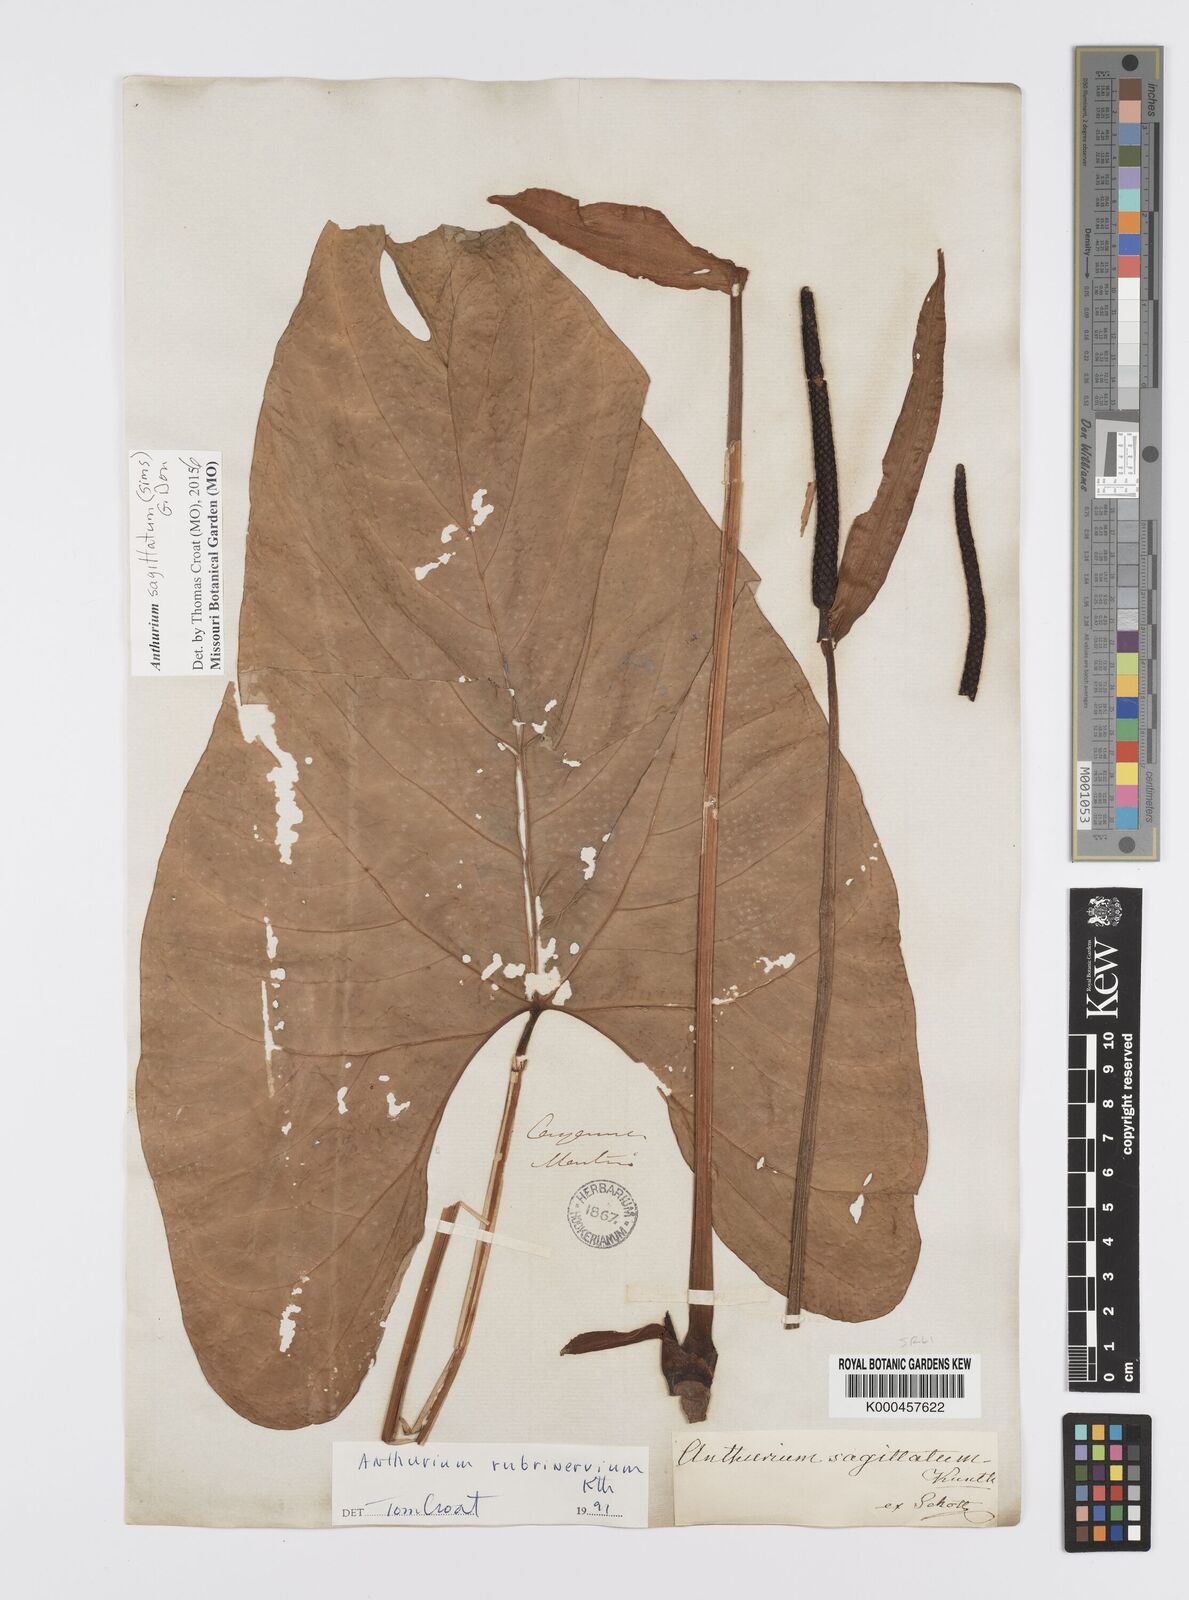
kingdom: Plantae
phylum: Tracheophyta
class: Liliopsida
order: Alismatales
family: Araceae
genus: Anthurium
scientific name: Anthurium sagittatum
